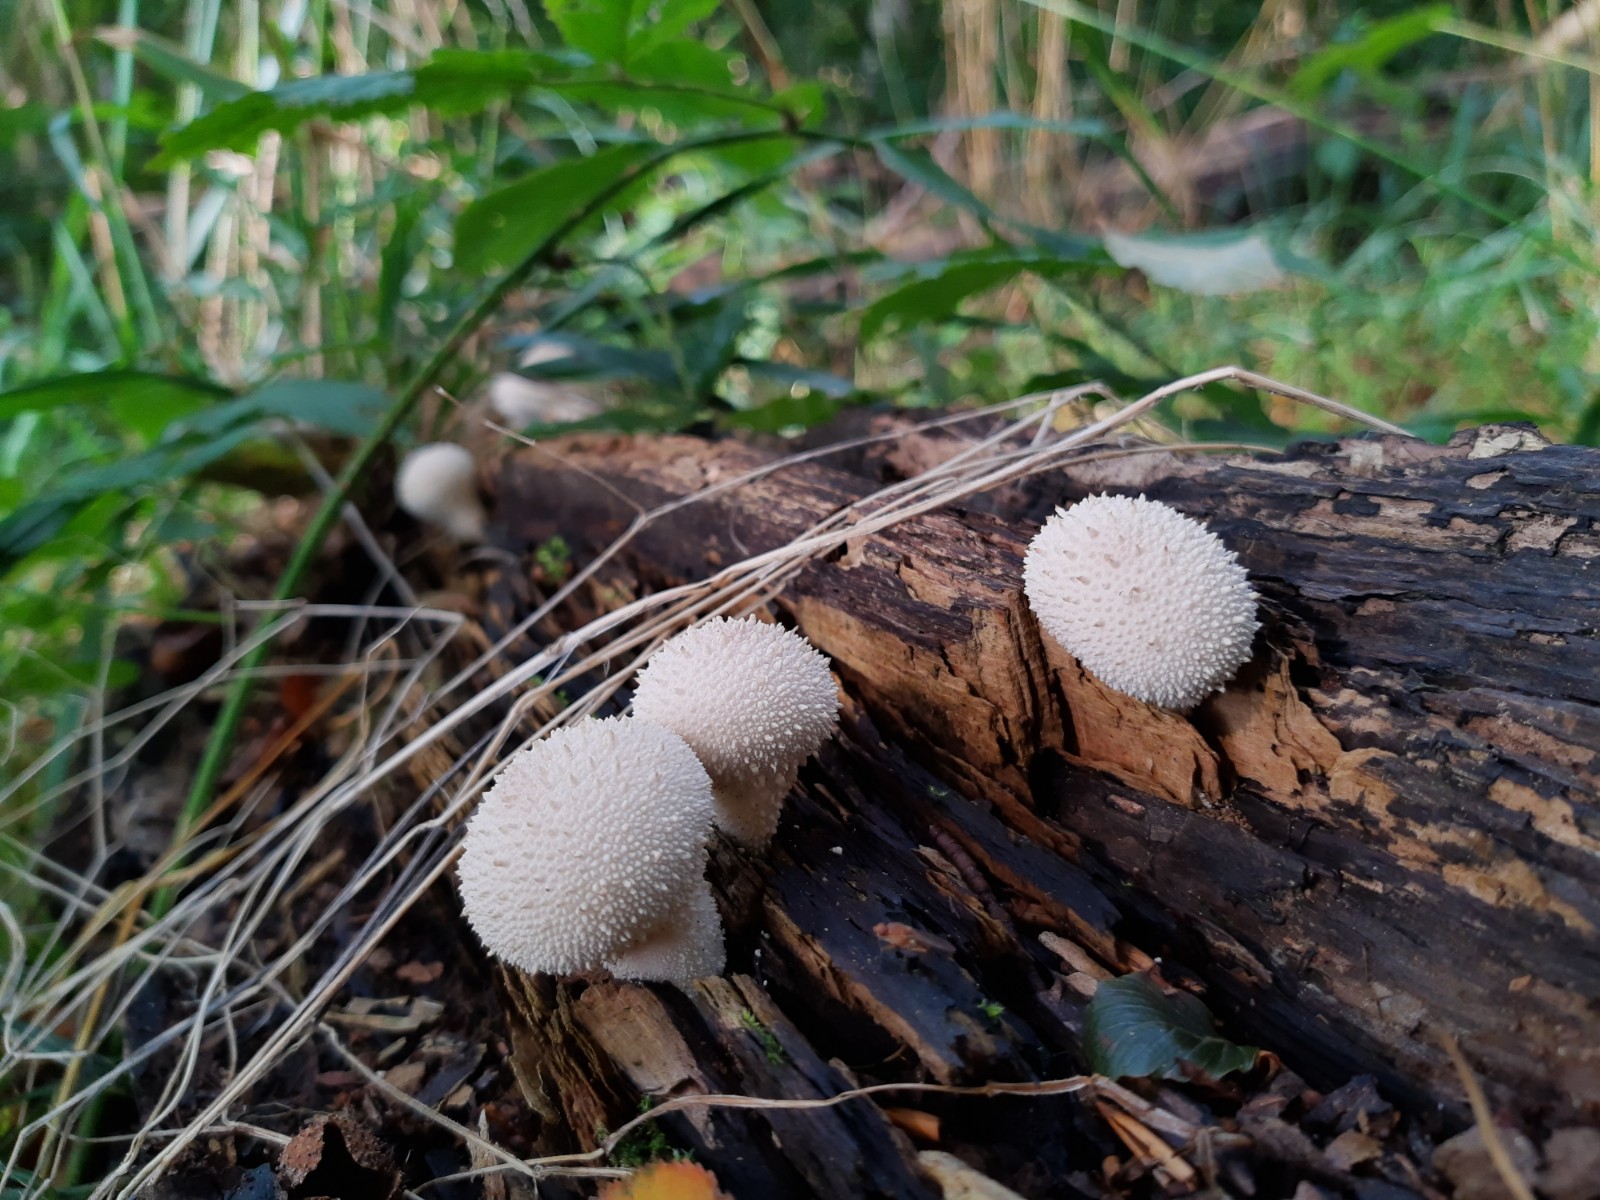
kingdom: Fungi
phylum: Basidiomycota
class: Agaricomycetes
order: Agaricales
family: Lycoperdaceae
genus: Lycoperdon
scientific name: Lycoperdon perlatum
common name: krystal-støvbold
